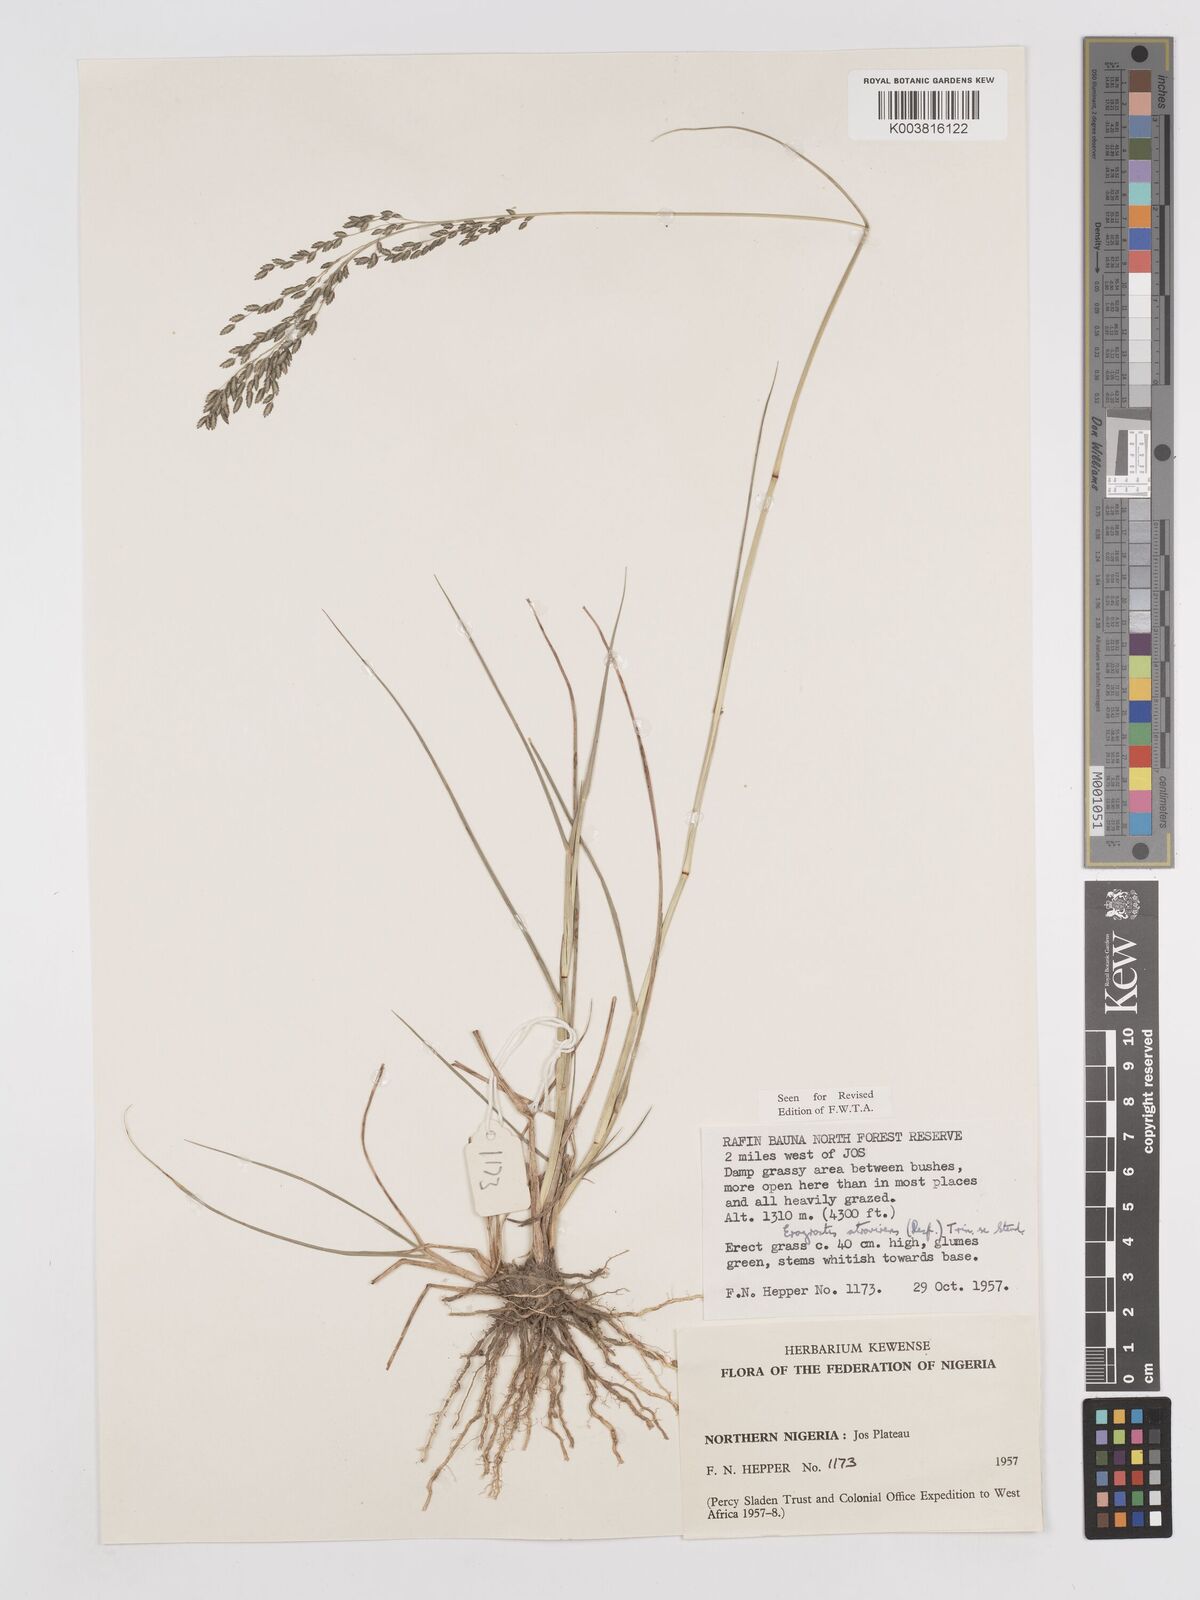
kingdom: Plantae
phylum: Tracheophyta
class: Liliopsida
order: Poales
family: Poaceae
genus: Eragrostis
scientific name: Eragrostis atrovirens
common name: Thalia lovegrass
